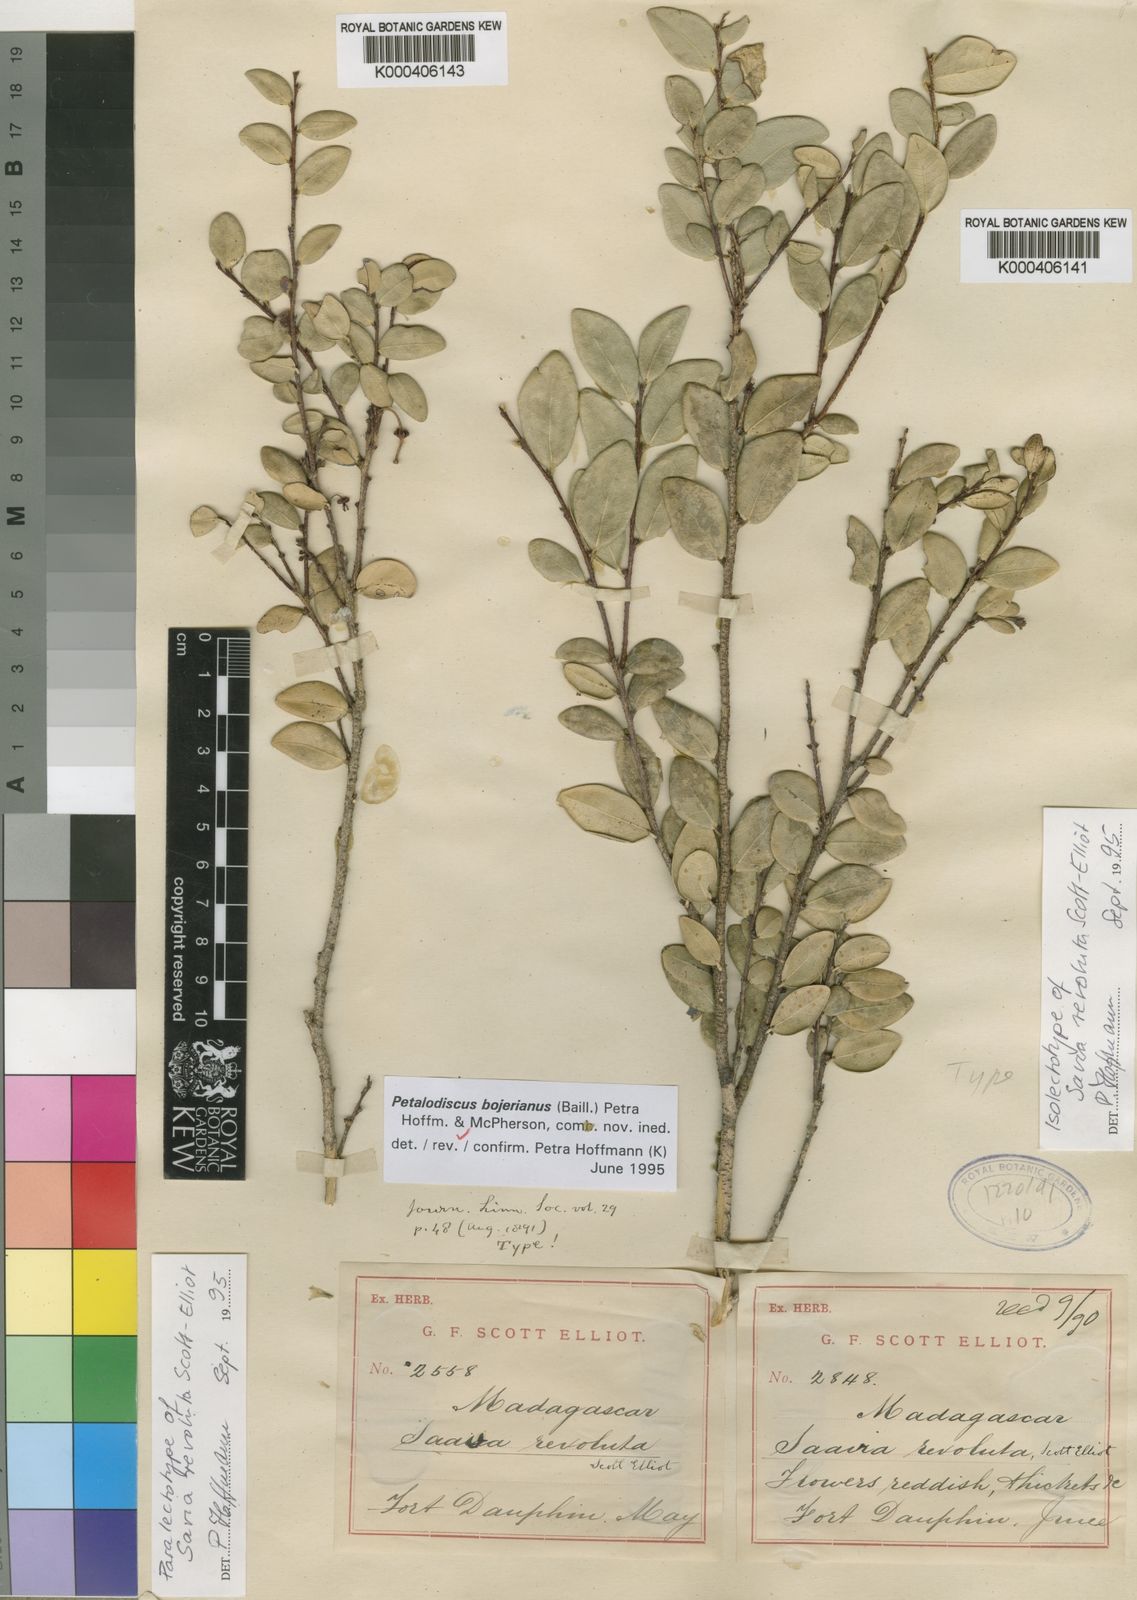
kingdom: Plantae
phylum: Tracheophyta
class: Magnoliopsida
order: Malpighiales
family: Phyllanthaceae
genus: Wielandia
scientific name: Wielandia
